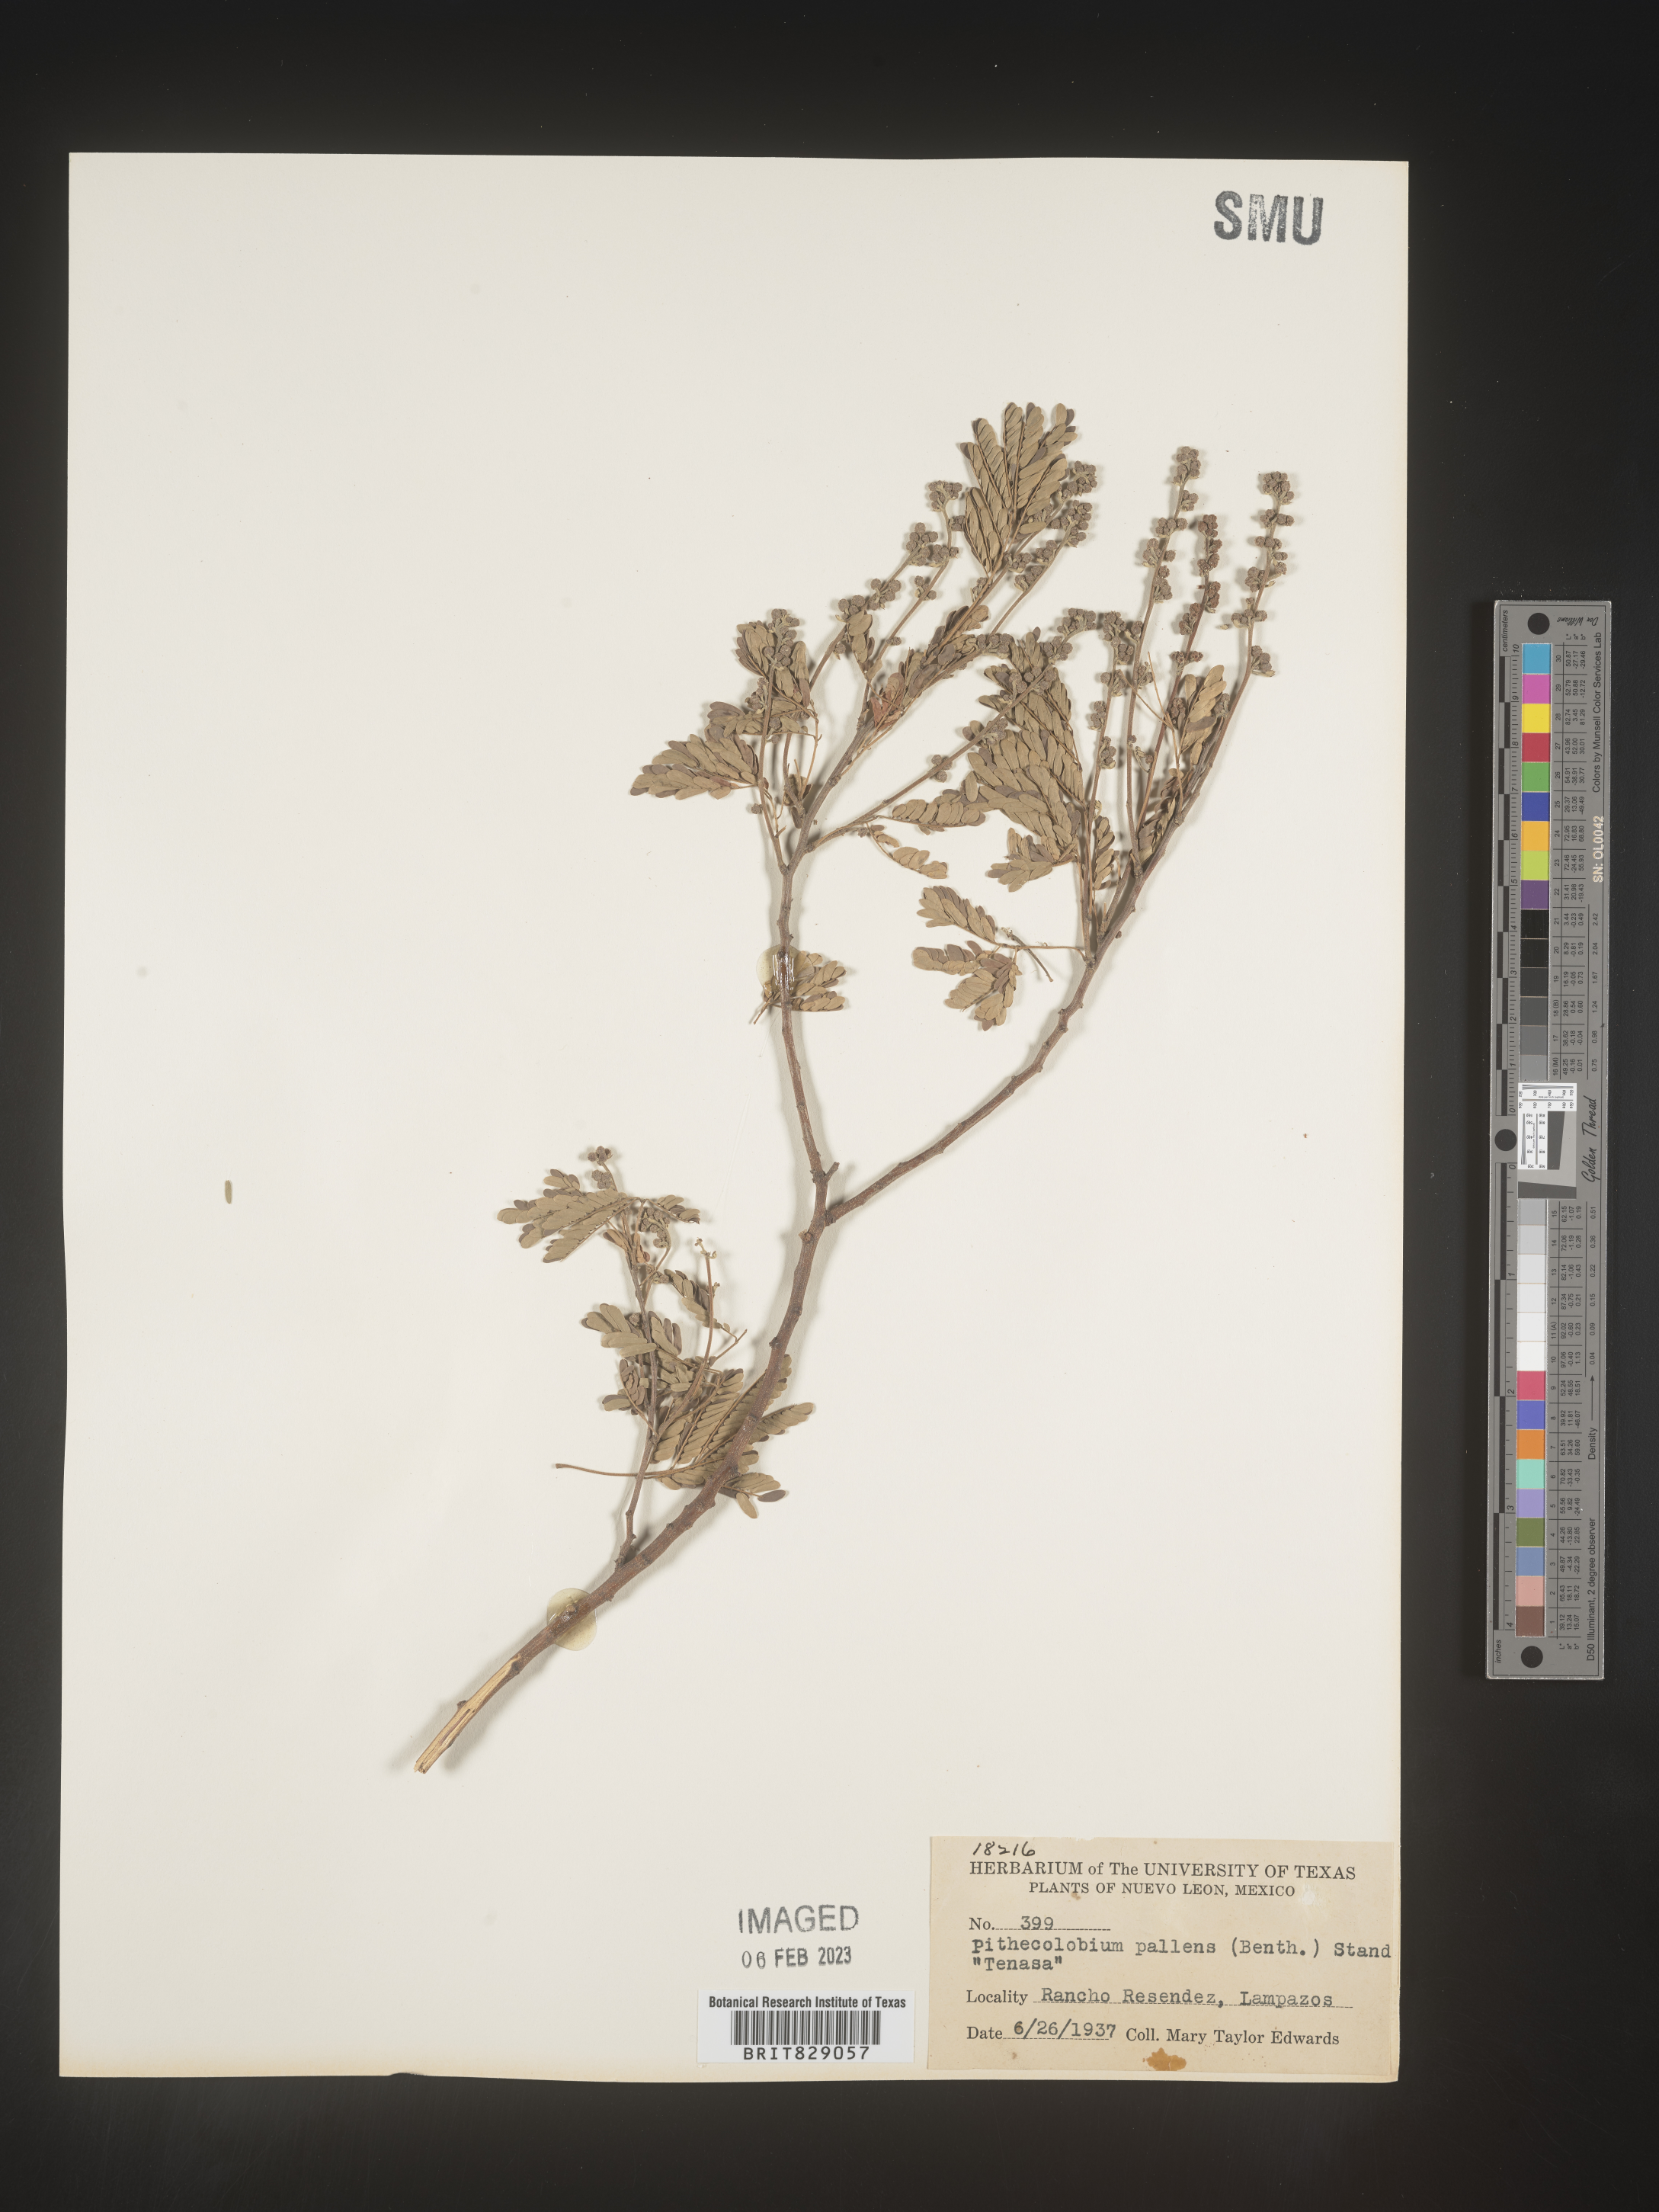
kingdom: Plantae
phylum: Tracheophyta
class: Magnoliopsida
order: Fabales
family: Fabaceae
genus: Pithecellobium
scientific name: Pithecellobium
